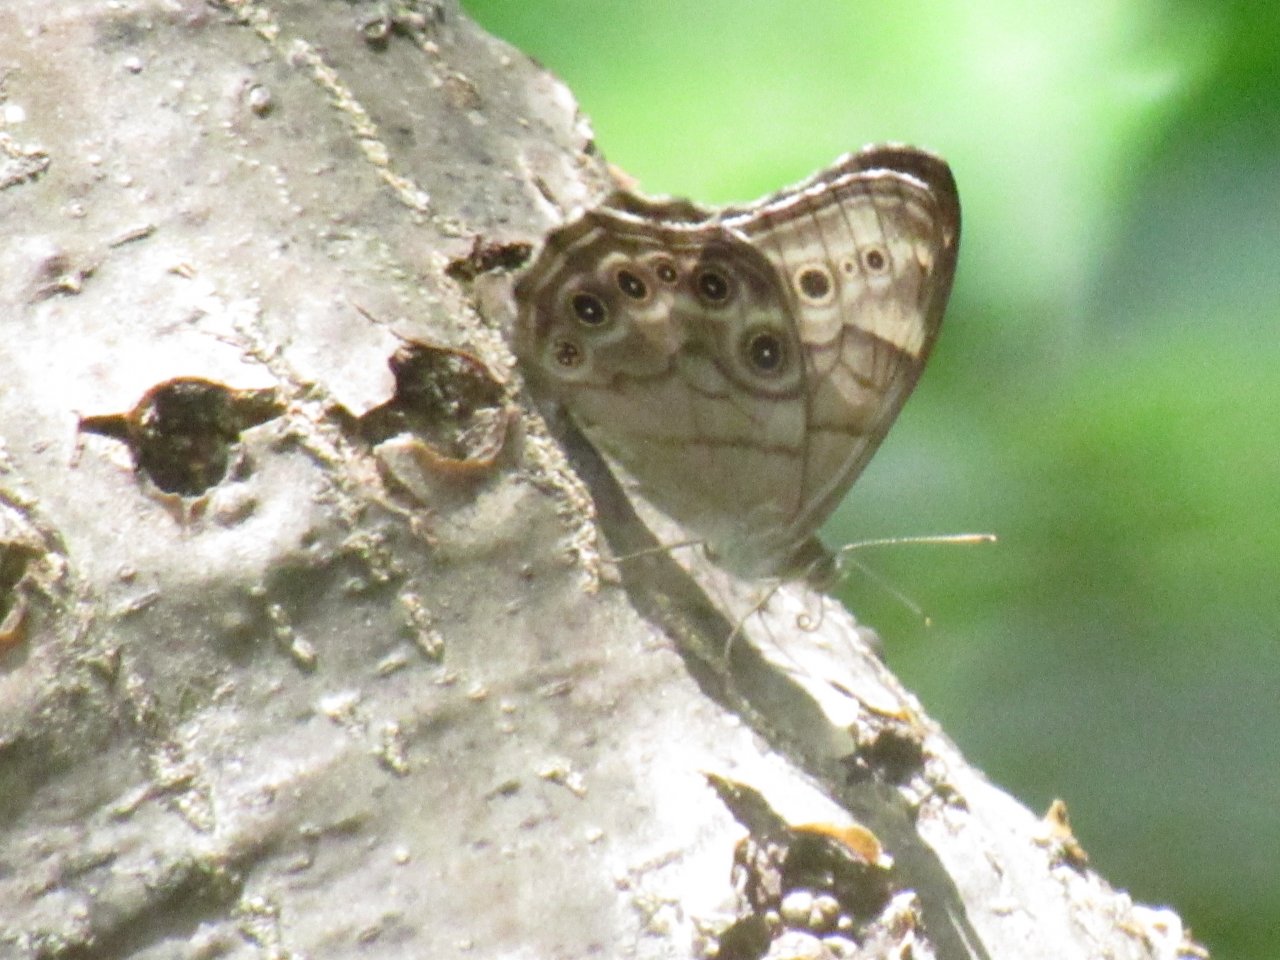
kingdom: Animalia
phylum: Arthropoda
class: Insecta
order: Lepidoptera
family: Nymphalidae
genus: Lethe
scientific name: Lethe anthedon
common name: Northern Pearly-Eye
